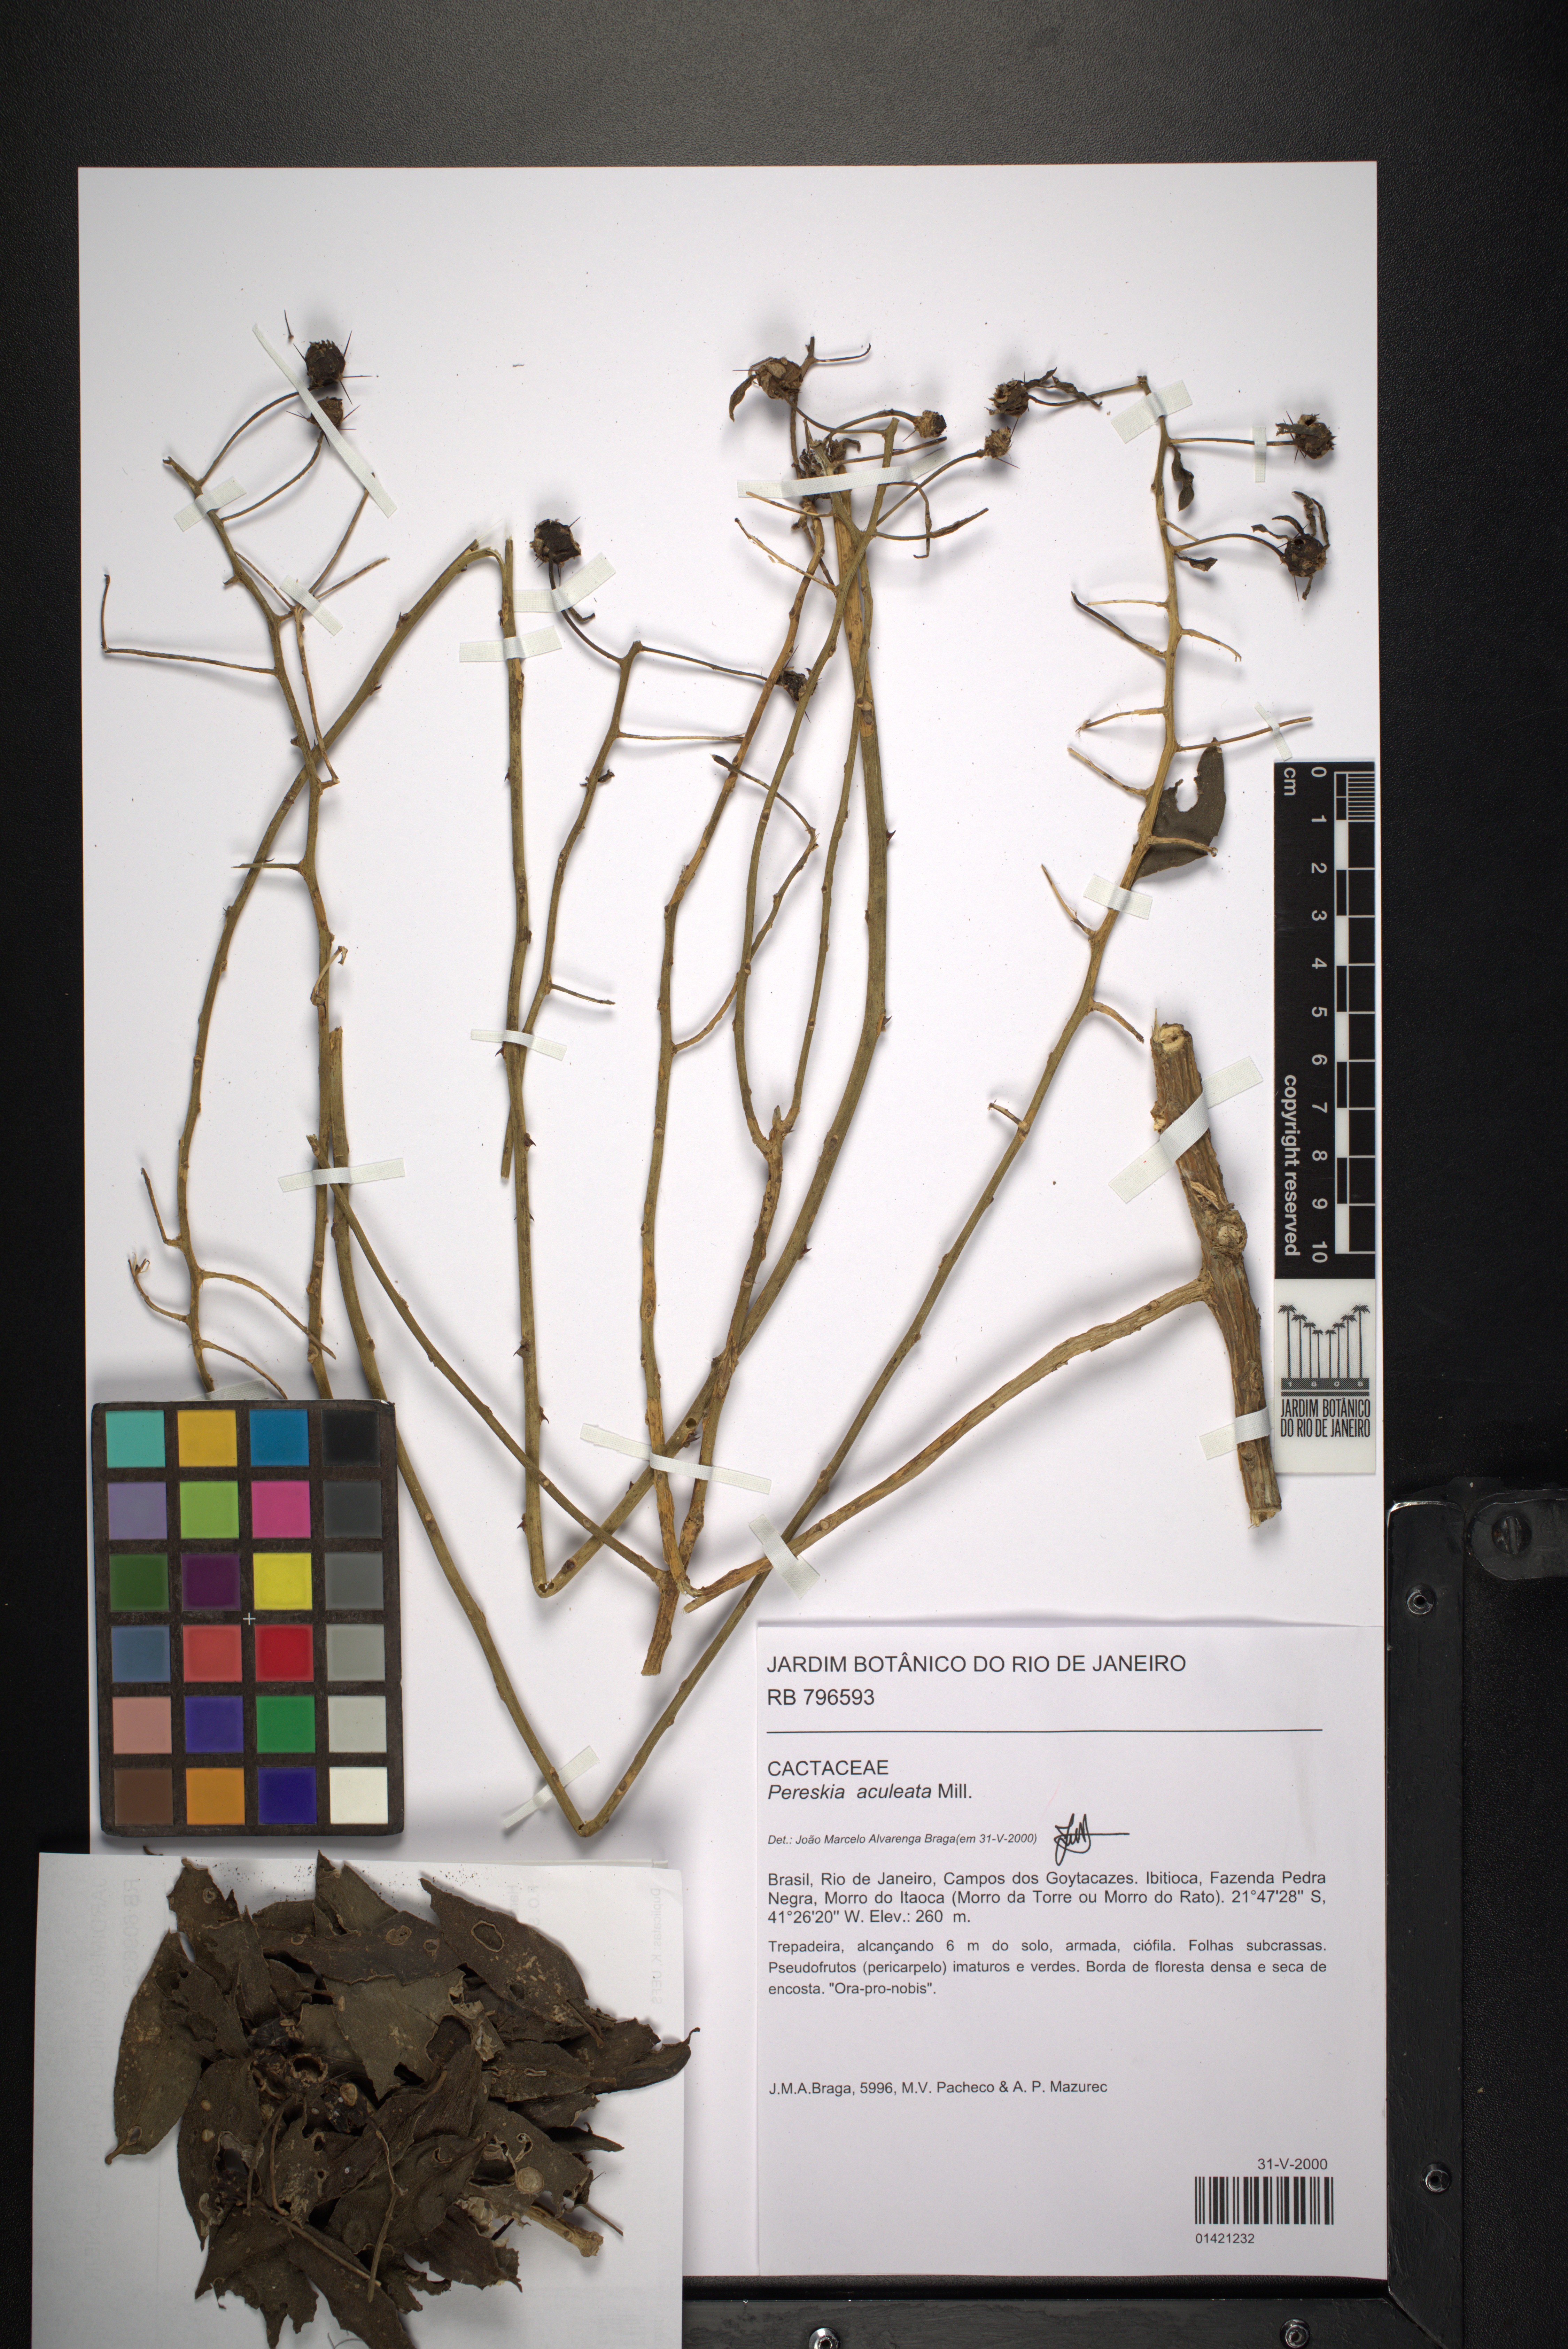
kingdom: Plantae
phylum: Tracheophyta
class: Magnoliopsida
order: Caryophyllales
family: Cactaceae
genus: Pereskia
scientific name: Pereskia aculeata
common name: Barbados gooseberry
